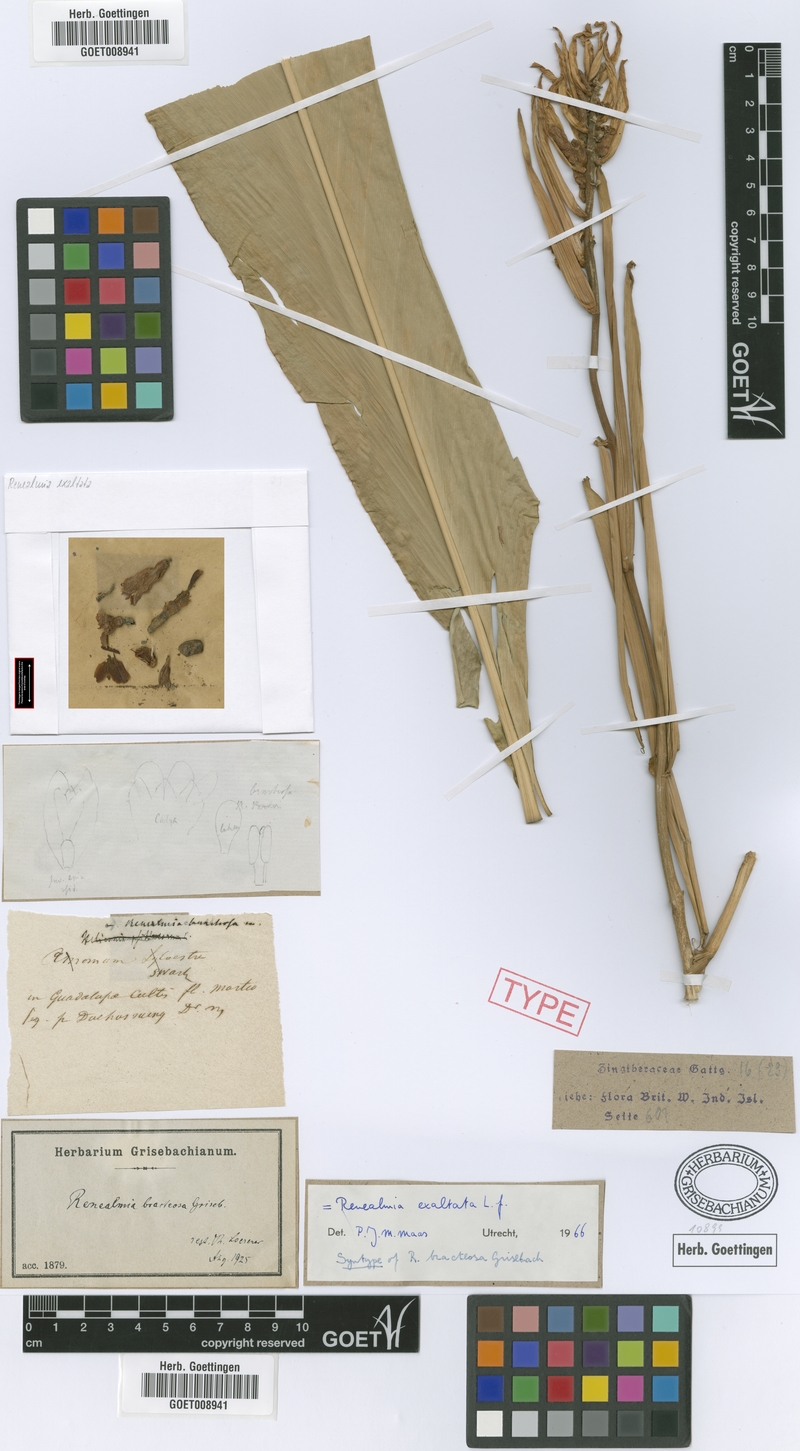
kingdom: Plantae
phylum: Tracheophyta
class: Liliopsida
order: Zingiberales
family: Zingiberaceae
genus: Renealmia
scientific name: Renealmia alpinia
